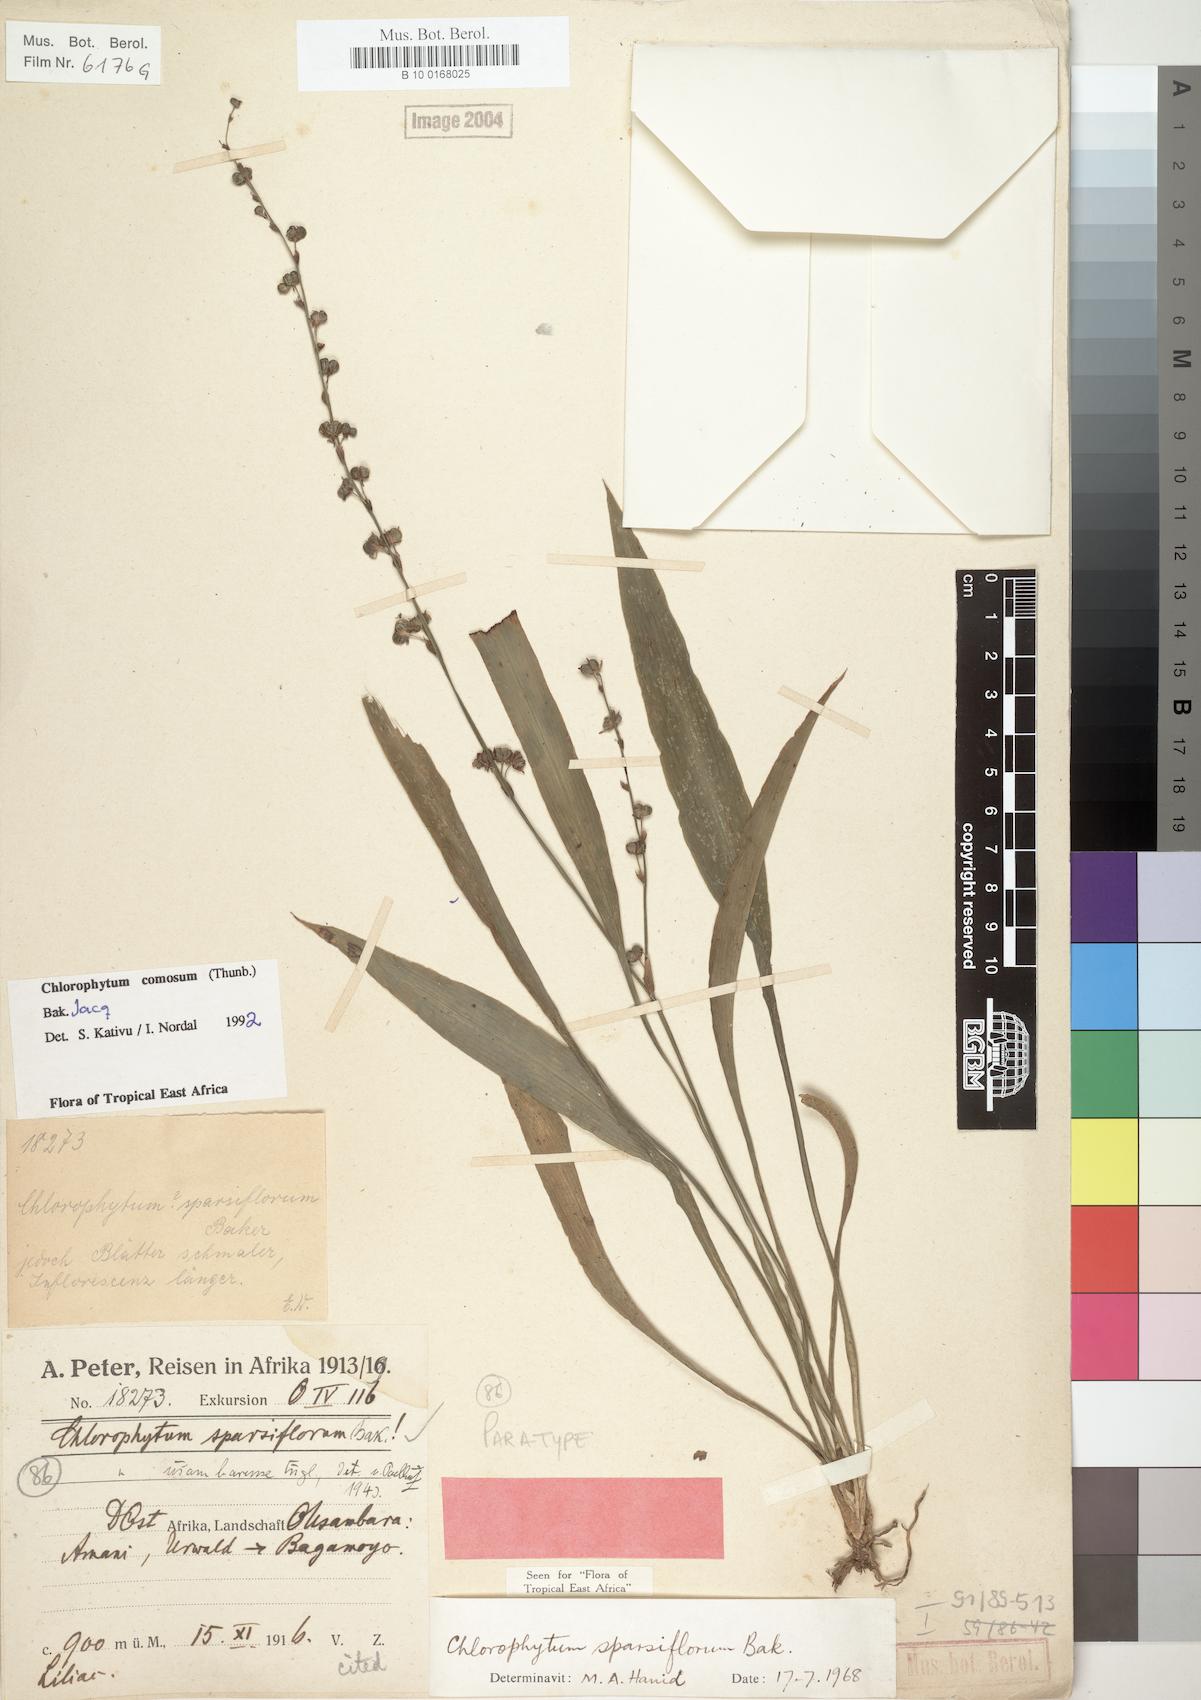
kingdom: Plantae
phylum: Tracheophyta
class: Liliopsida
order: Asparagales
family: Asparagaceae
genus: Chlorophytum
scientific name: Chlorophytum comosum
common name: Spider plant
